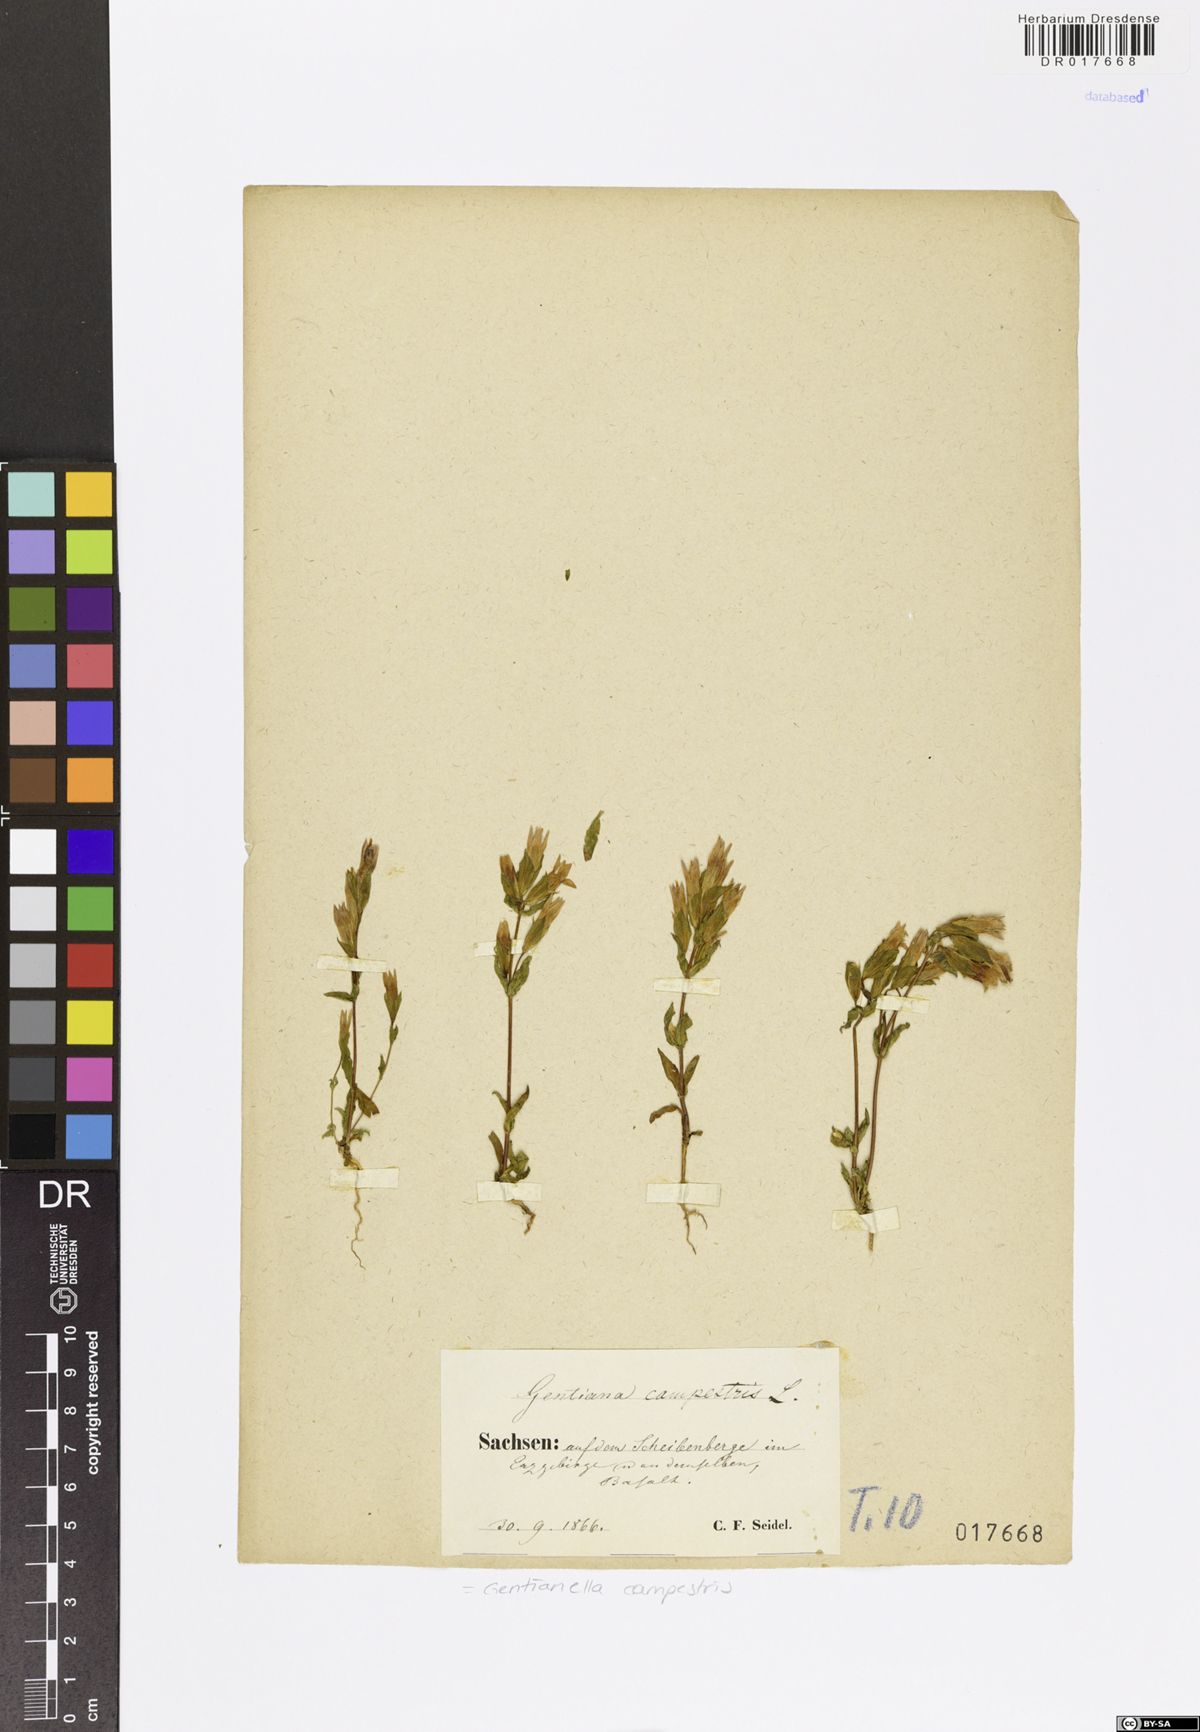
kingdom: Plantae
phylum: Tracheophyta
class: Magnoliopsida
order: Gentianales
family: Gentianaceae
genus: Gentianella
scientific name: Gentianella campestris
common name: Field gentian
